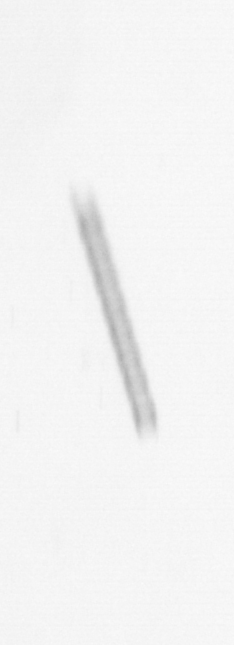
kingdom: Chromista
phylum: Ochrophyta
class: Bacillariophyceae
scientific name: Bacillariophyceae
